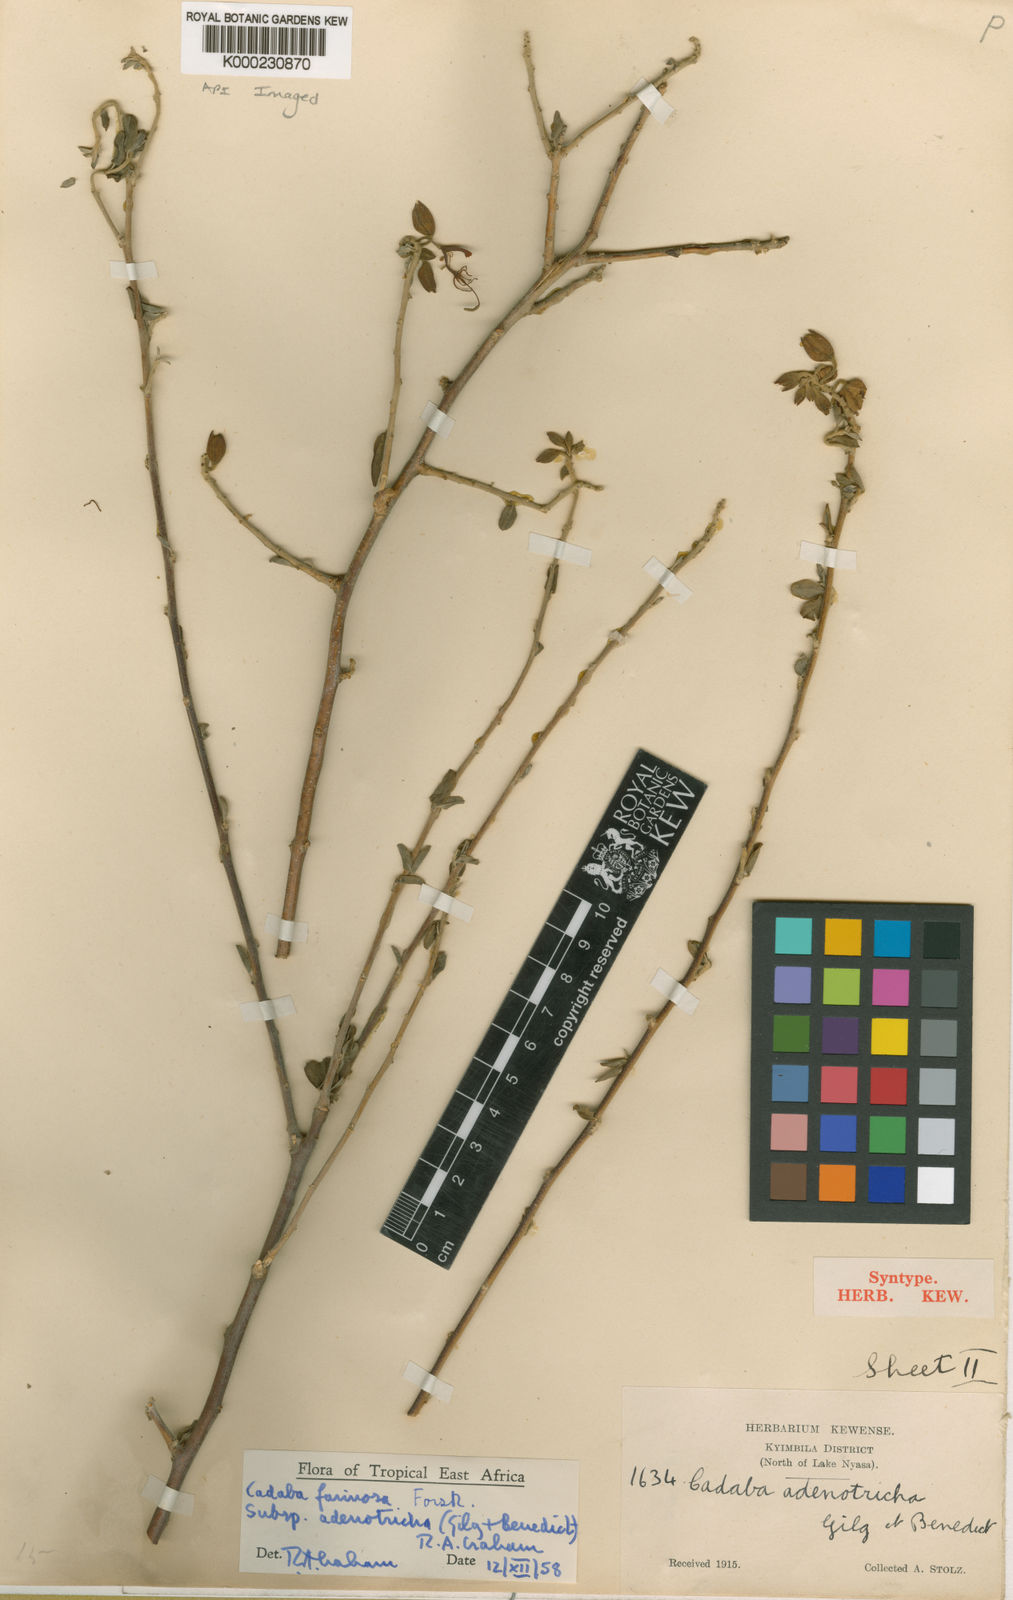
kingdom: Plantae
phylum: Tracheophyta
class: Magnoliopsida
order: Brassicales
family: Capparaceae
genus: Cadaba
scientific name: Cadaba farinosa
